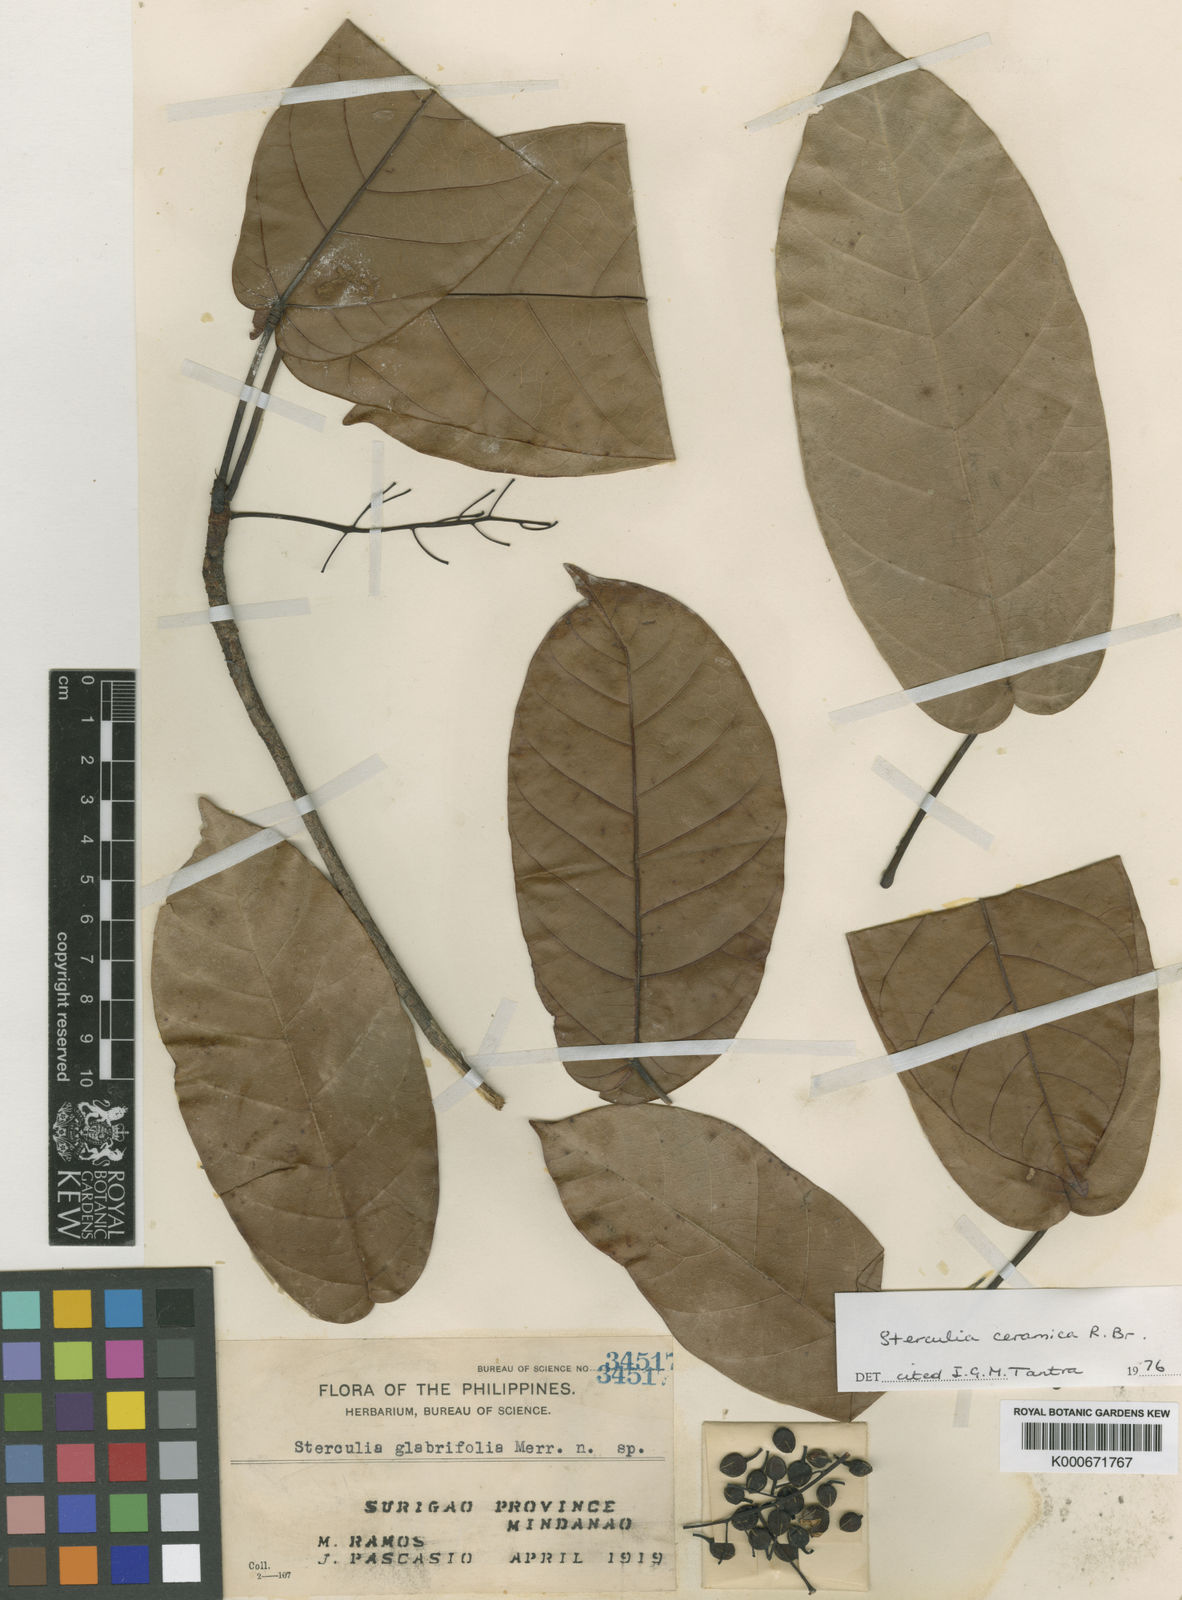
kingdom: Plantae
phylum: Tracheophyta
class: Magnoliopsida
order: Malvales
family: Malvaceae
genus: Sterculia
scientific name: Sterculia ceramica
